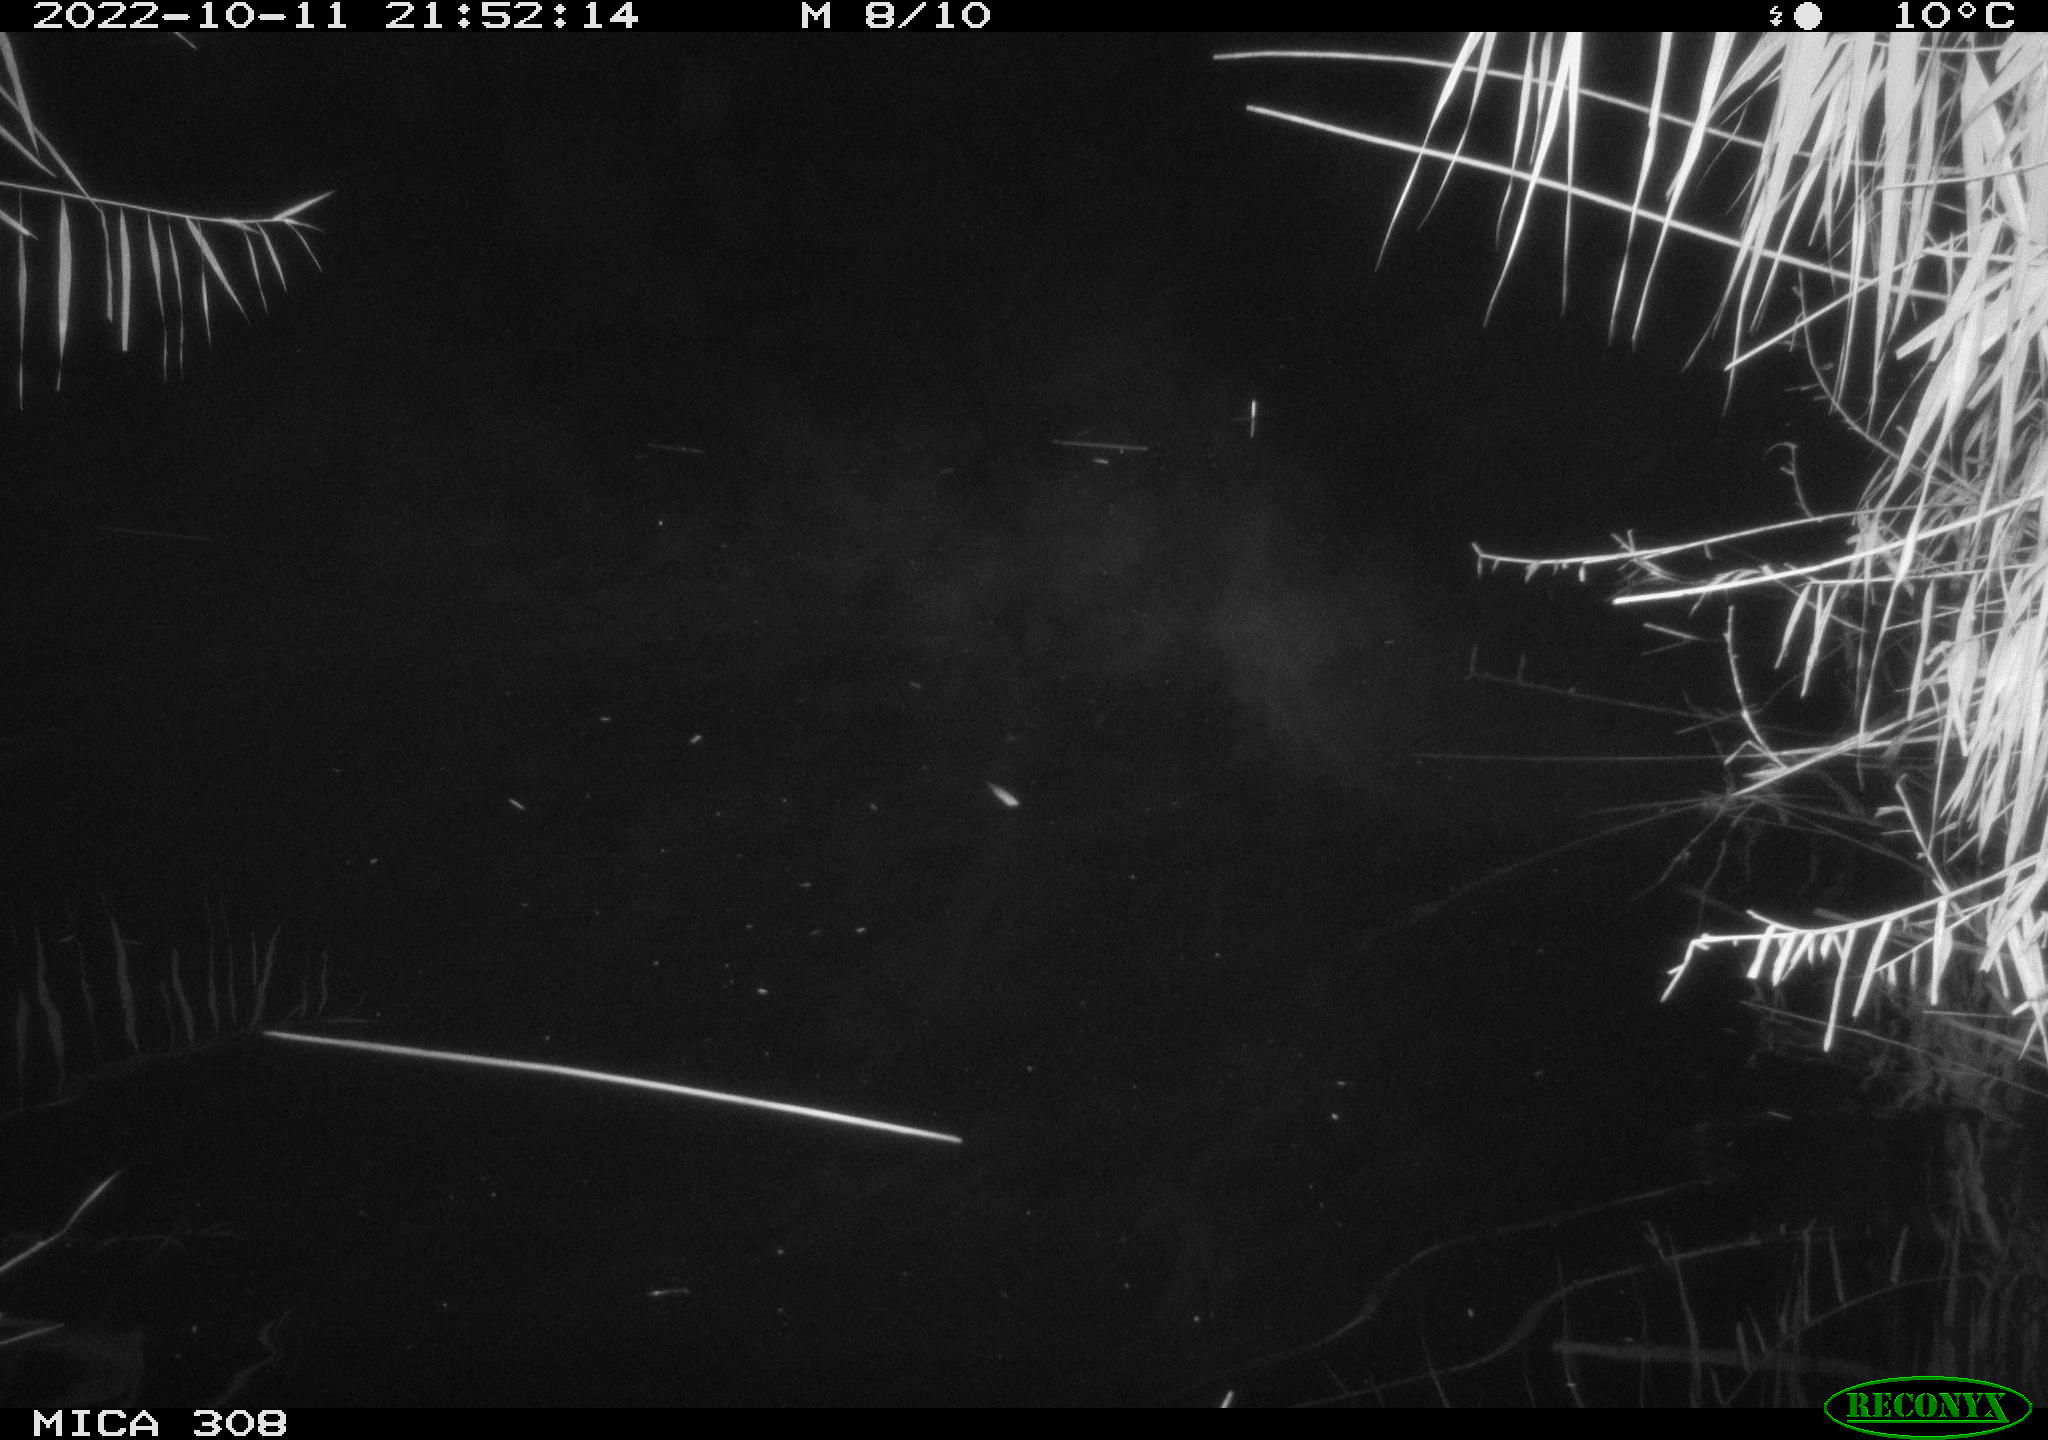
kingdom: Animalia
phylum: Chordata
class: Mammalia
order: Rodentia
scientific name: Rodentia
